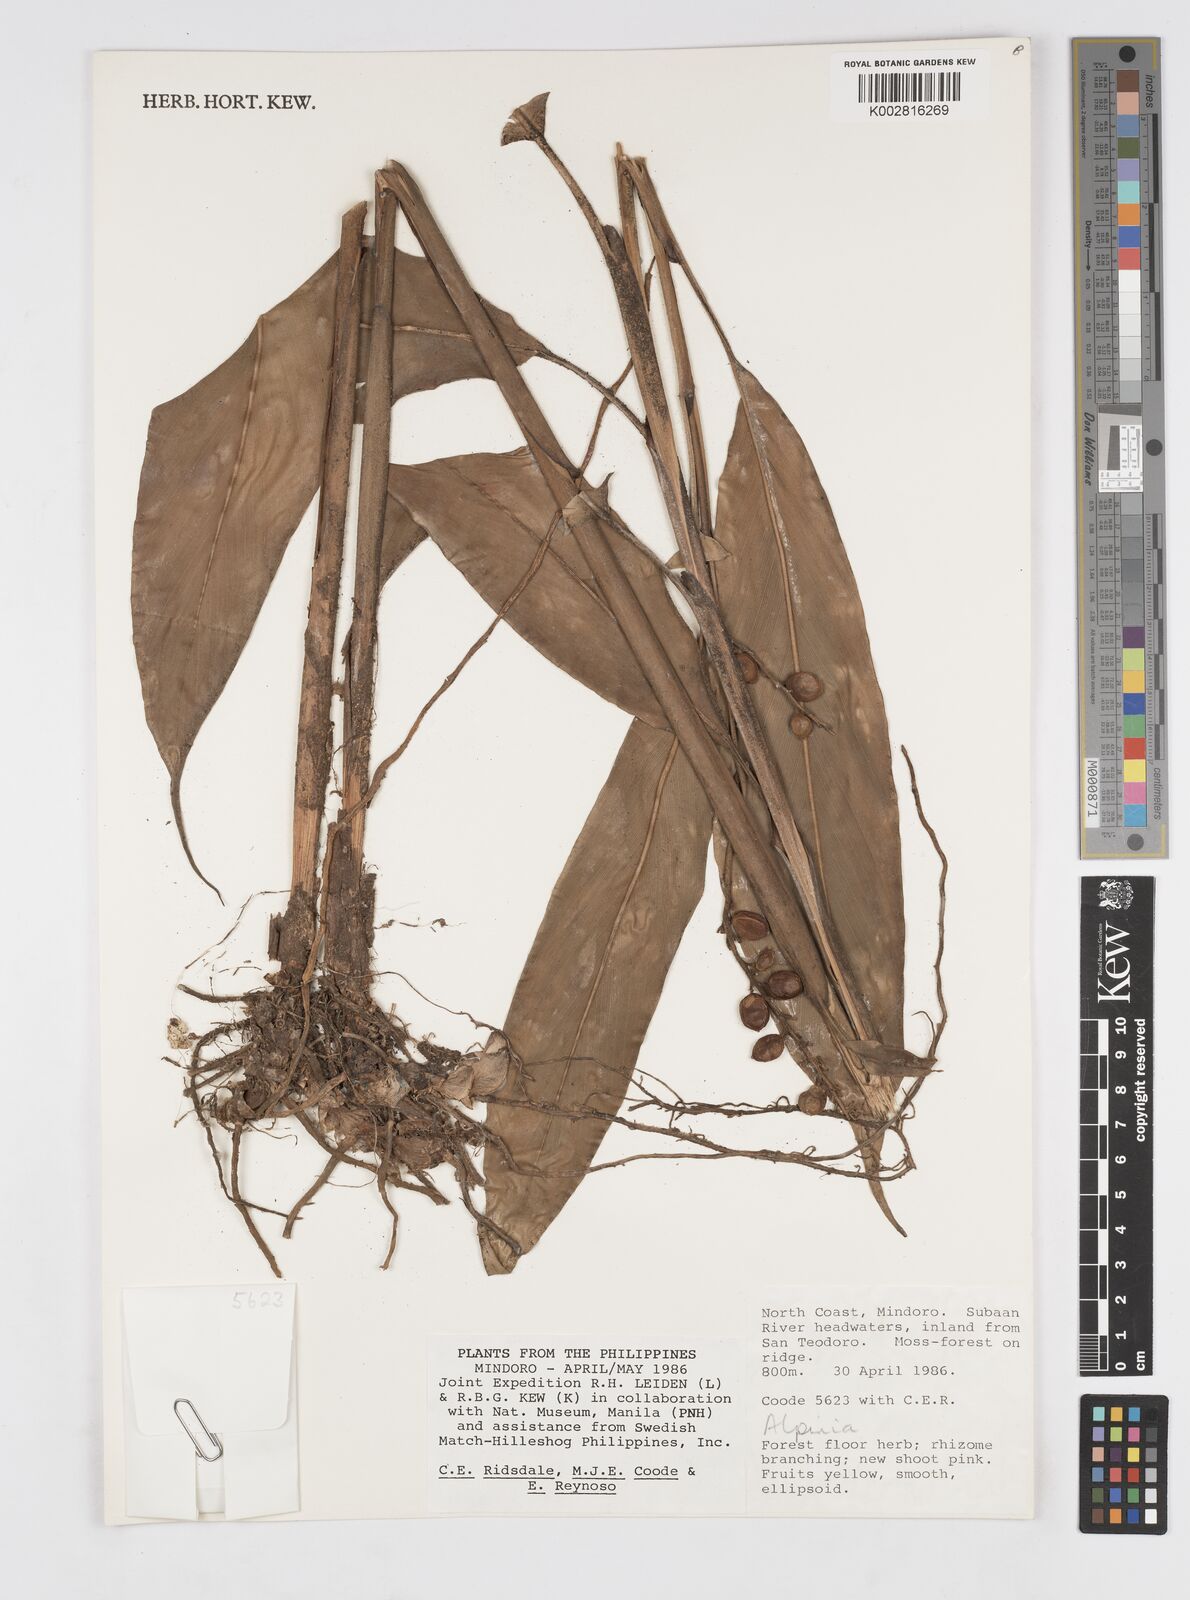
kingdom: Plantae
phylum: Tracheophyta
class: Liliopsida
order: Zingiberales
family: Zingiberaceae
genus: Alpinia
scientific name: Alpinia
